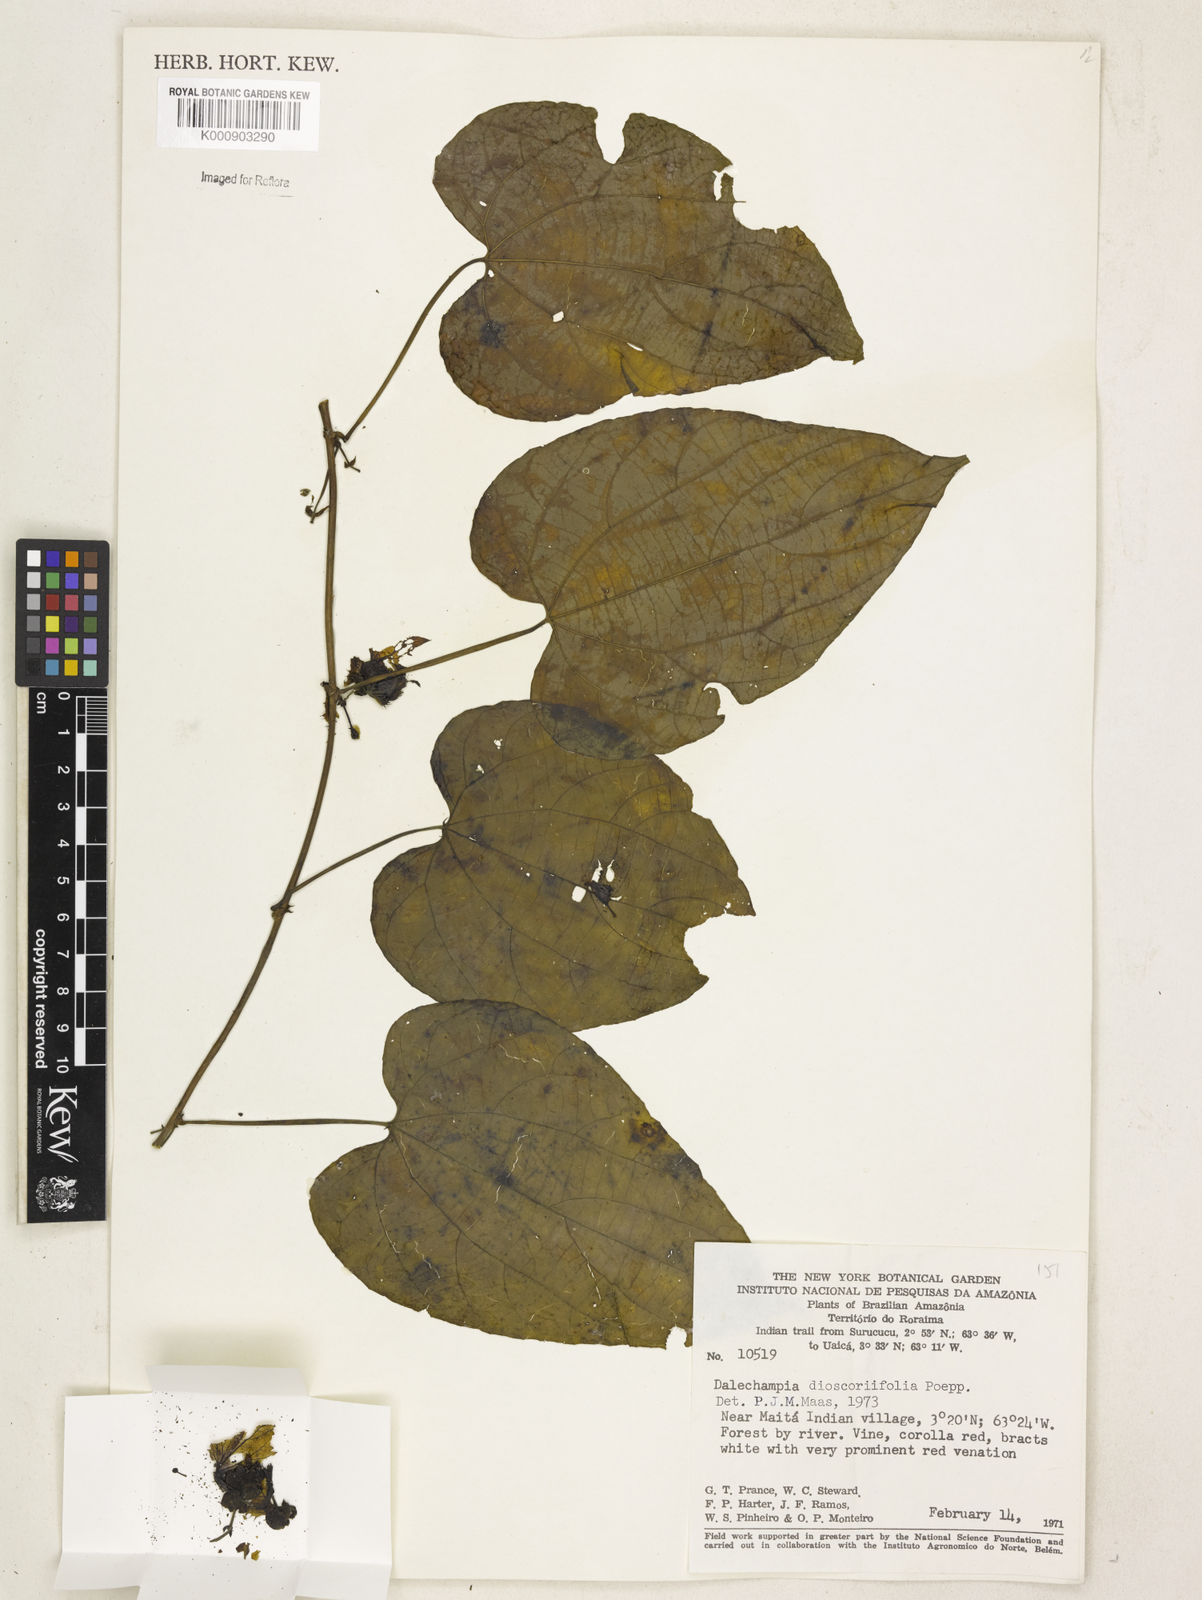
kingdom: Plantae
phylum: Tracheophyta
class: Magnoliopsida
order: Malpighiales
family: Euphorbiaceae
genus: Dalechampia
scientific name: Dalechampia dioscoreifolia
